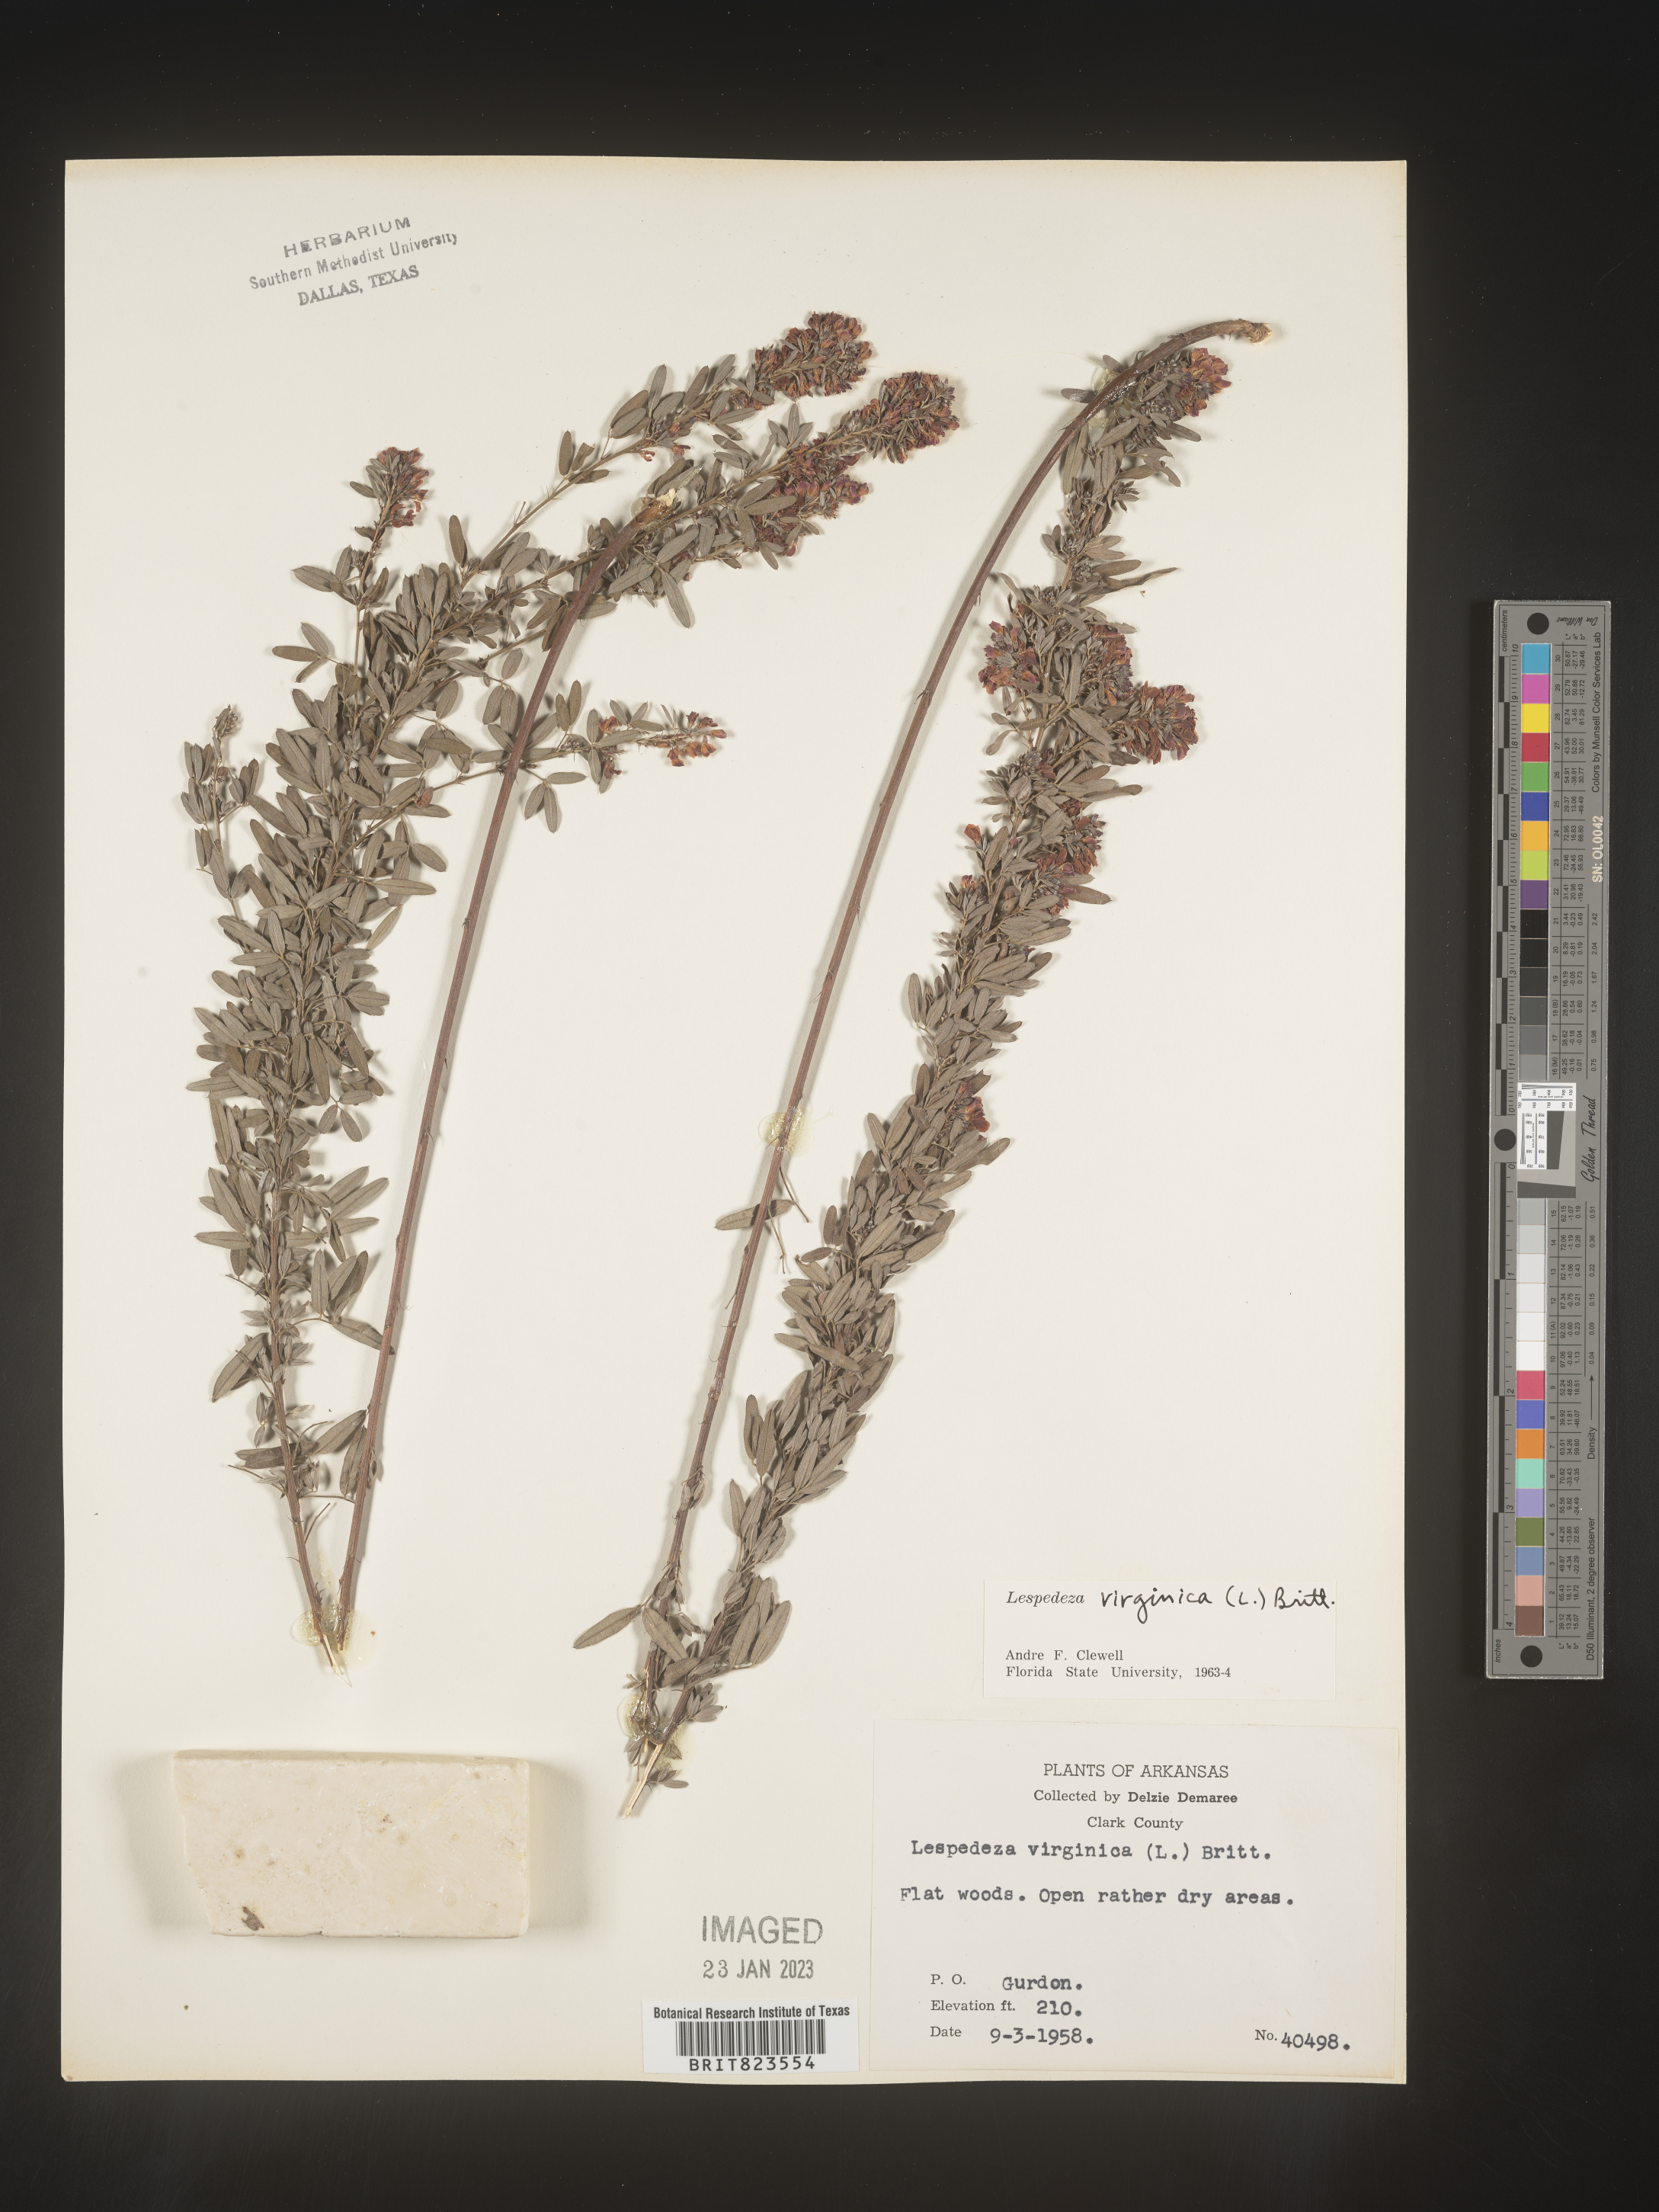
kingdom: Plantae
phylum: Tracheophyta
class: Magnoliopsida
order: Fabales
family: Fabaceae
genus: Lespedeza
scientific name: Lespedeza virginica
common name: Slender bush-clover
